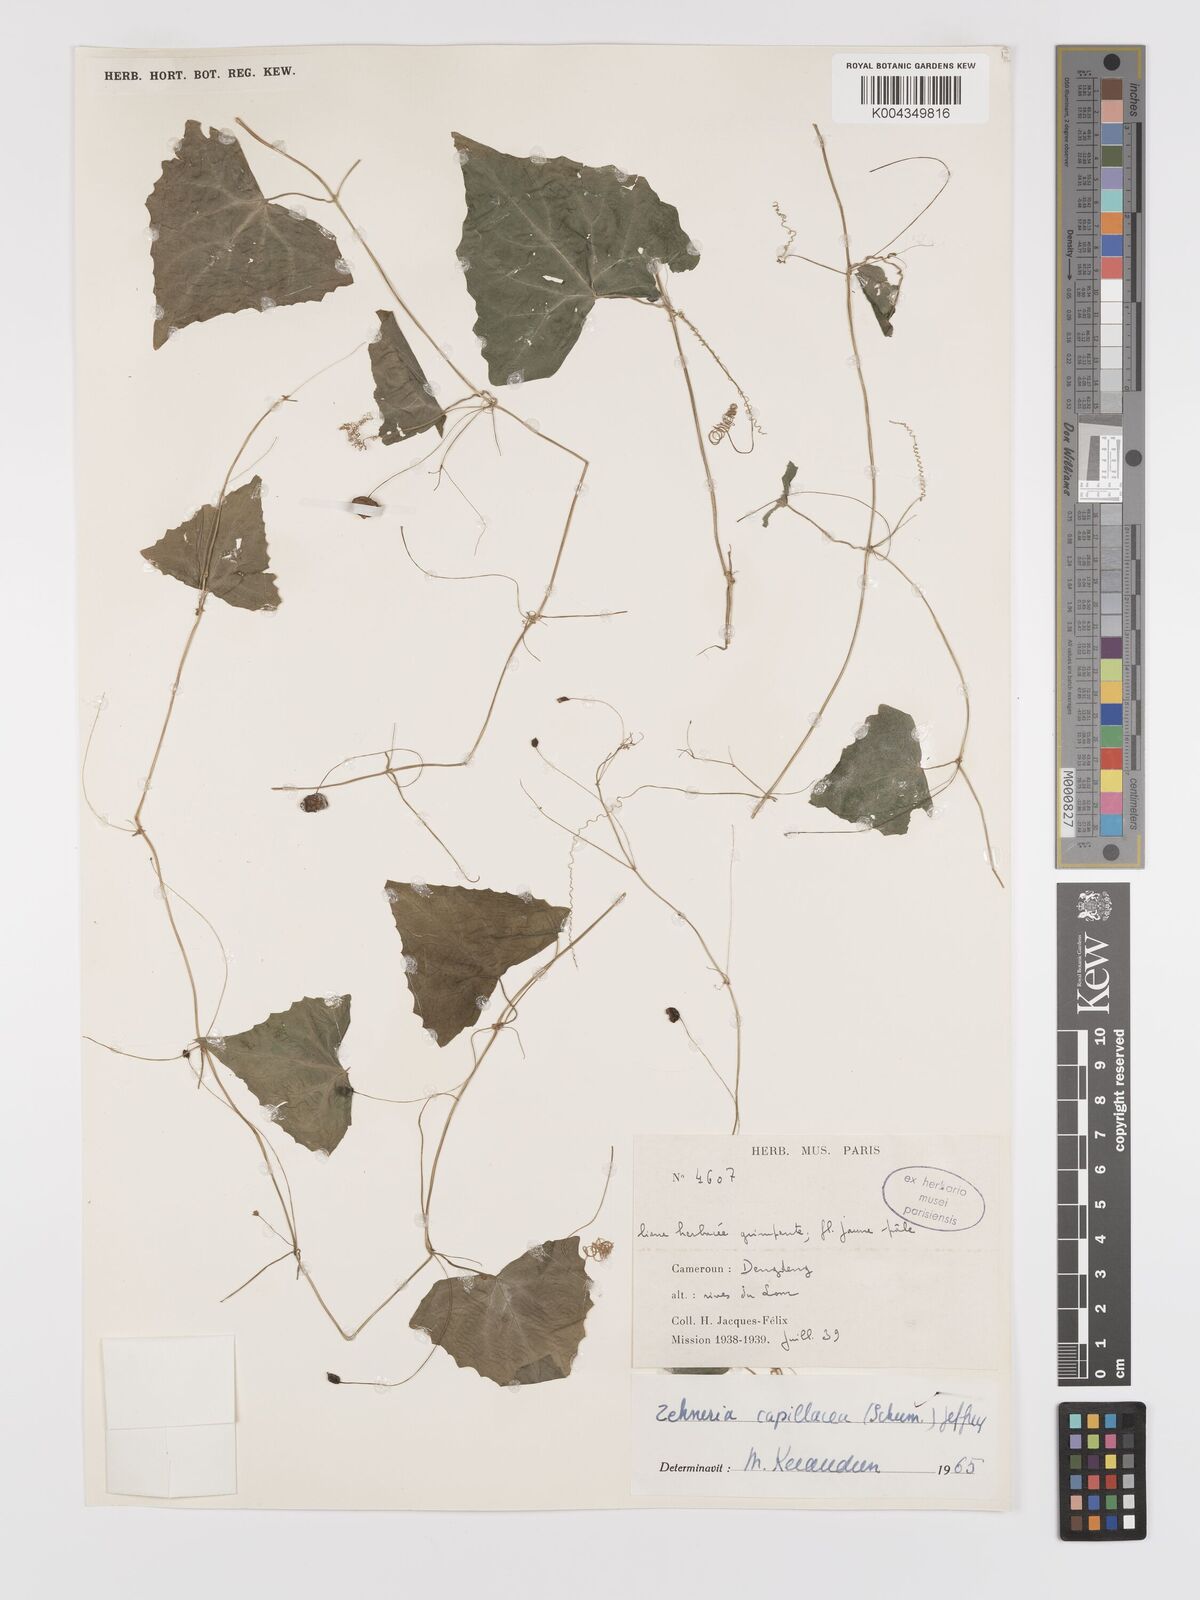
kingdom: Plantae
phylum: Tracheophyta
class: Magnoliopsida
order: Cucurbitales
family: Cucurbitaceae
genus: Zehneria
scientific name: Zehneria capillacea
